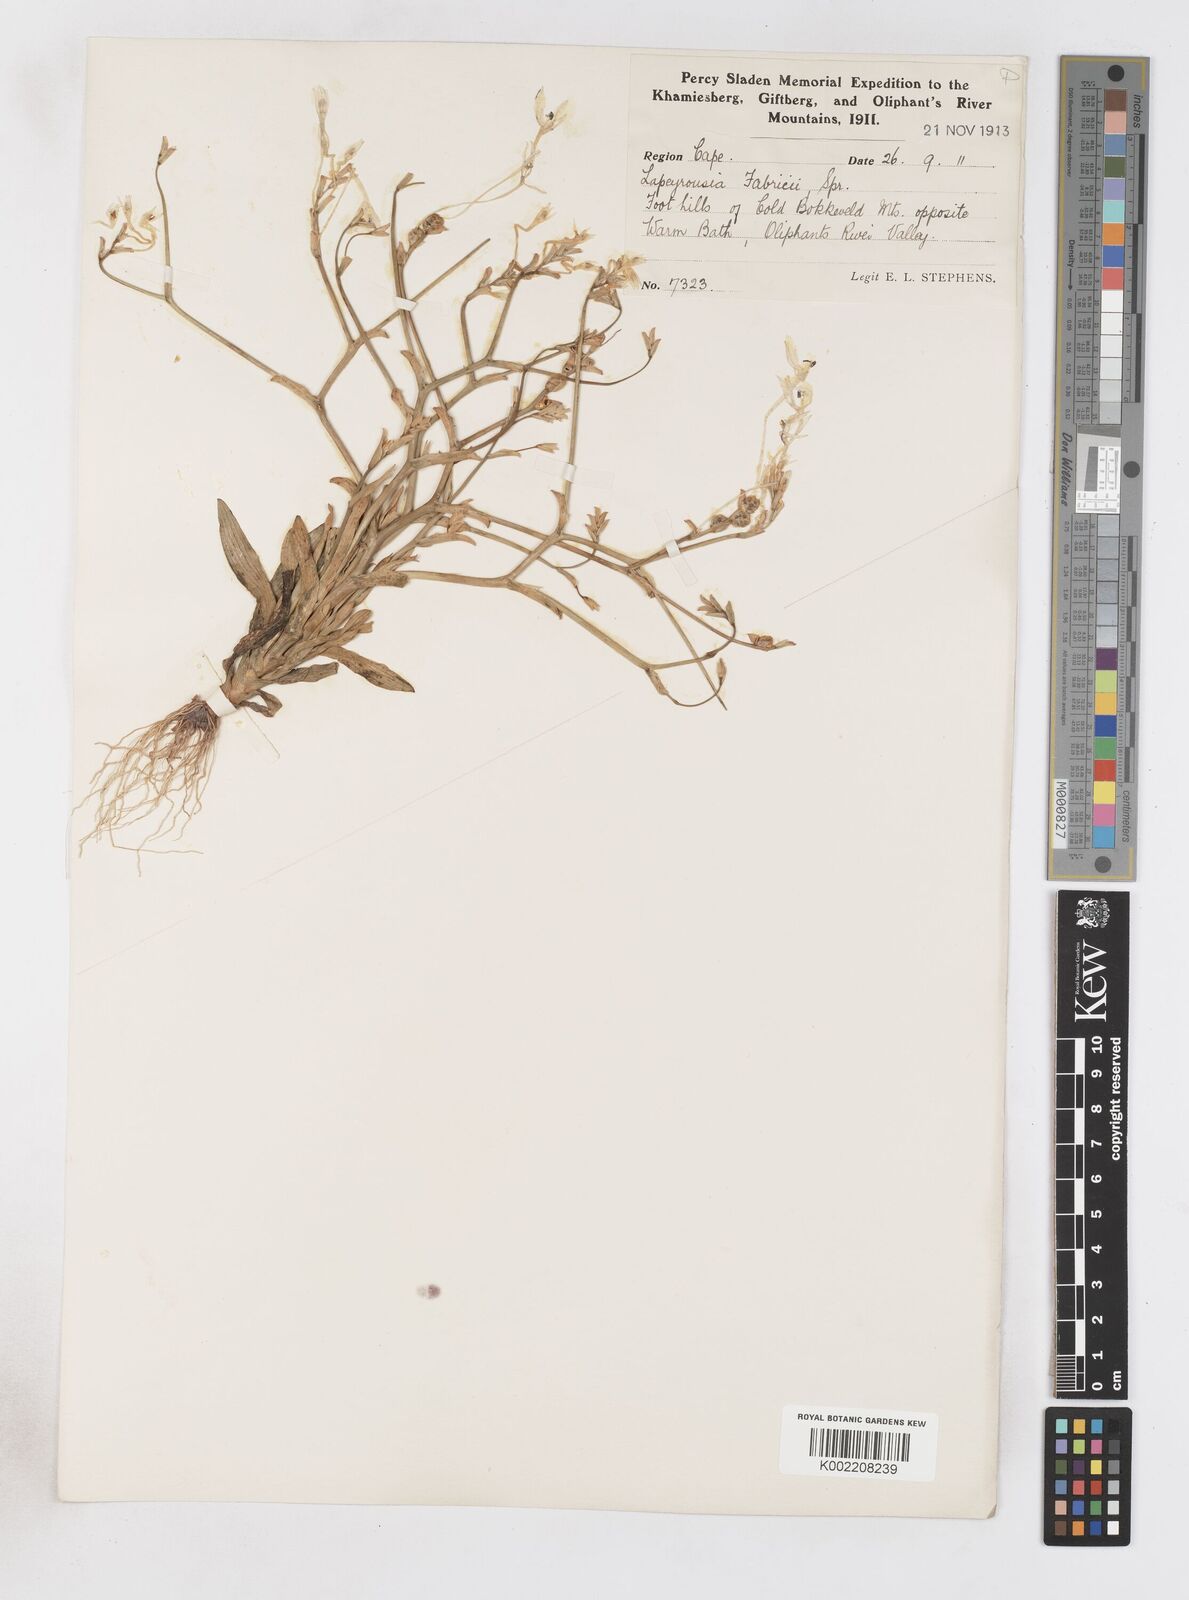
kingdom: Plantae
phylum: Tracheophyta
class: Liliopsida
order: Asparagales
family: Iridaceae
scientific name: Iridaceae
